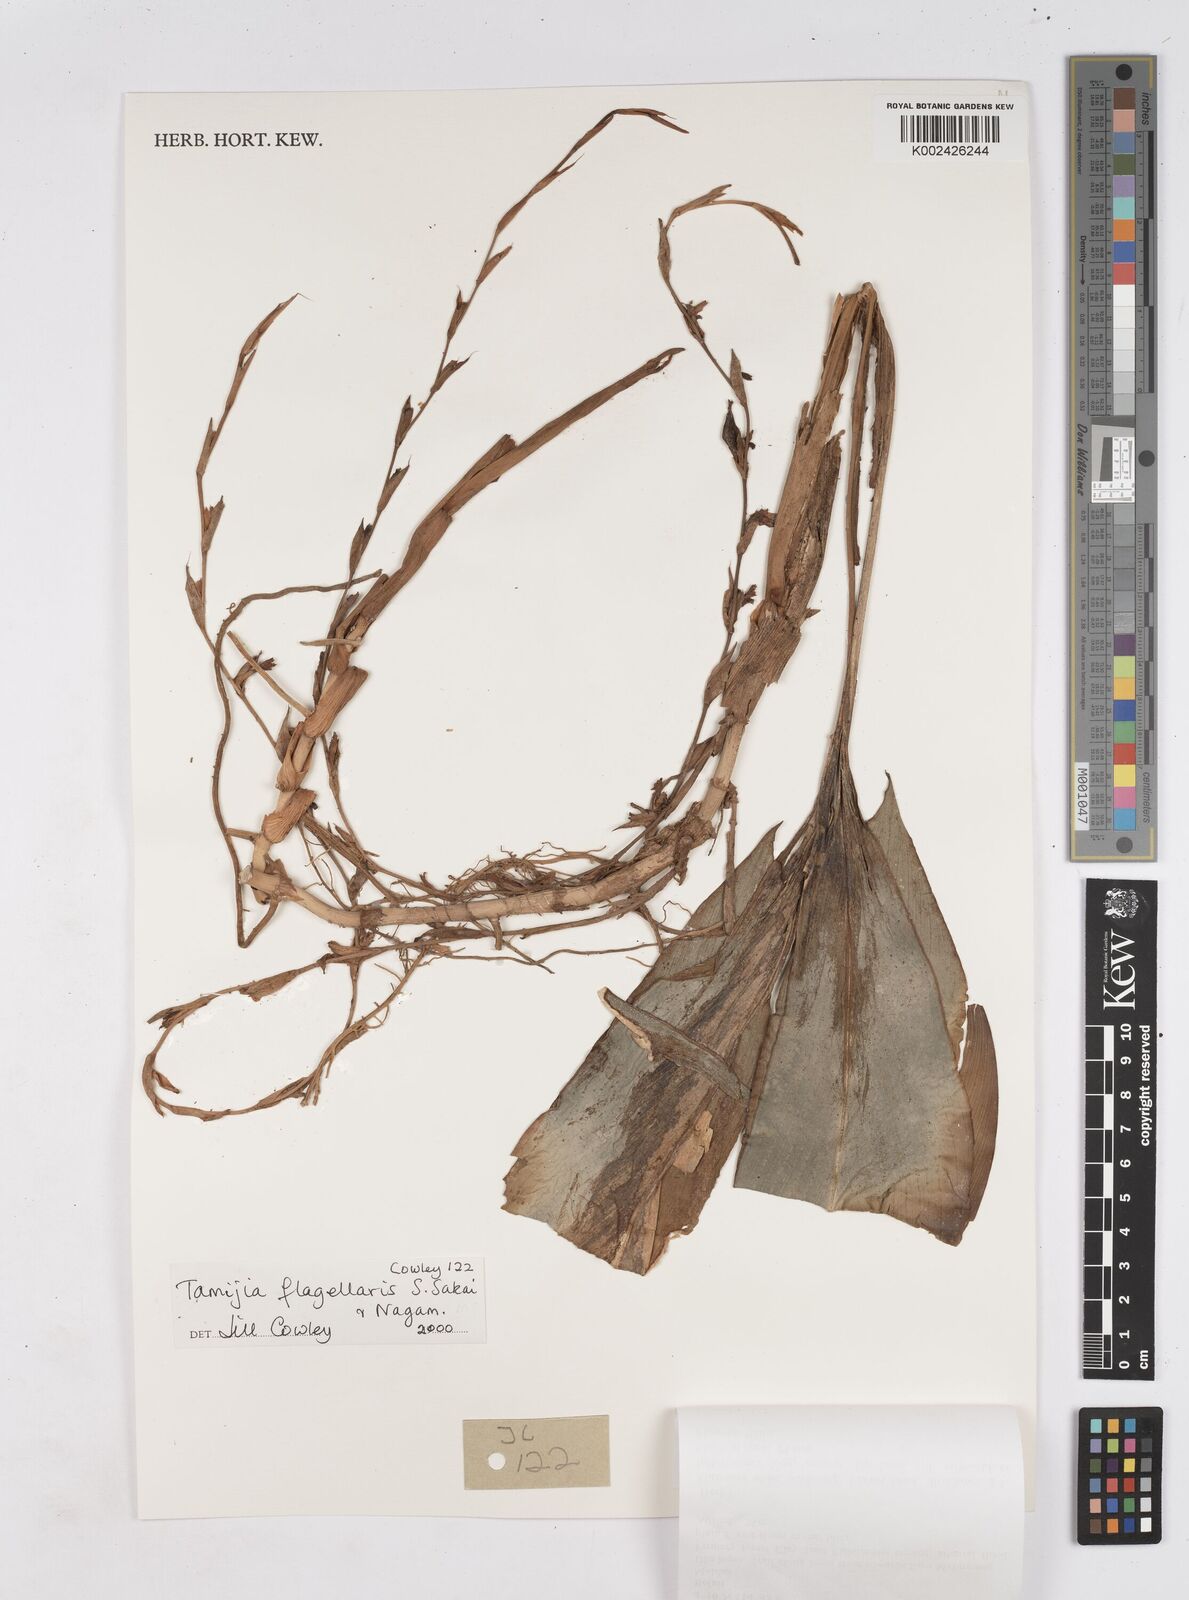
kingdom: Plantae
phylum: Tracheophyta
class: Liliopsida
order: Zingiberales
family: Zingiberaceae
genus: Tamijia
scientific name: Tamijia flagellaris
